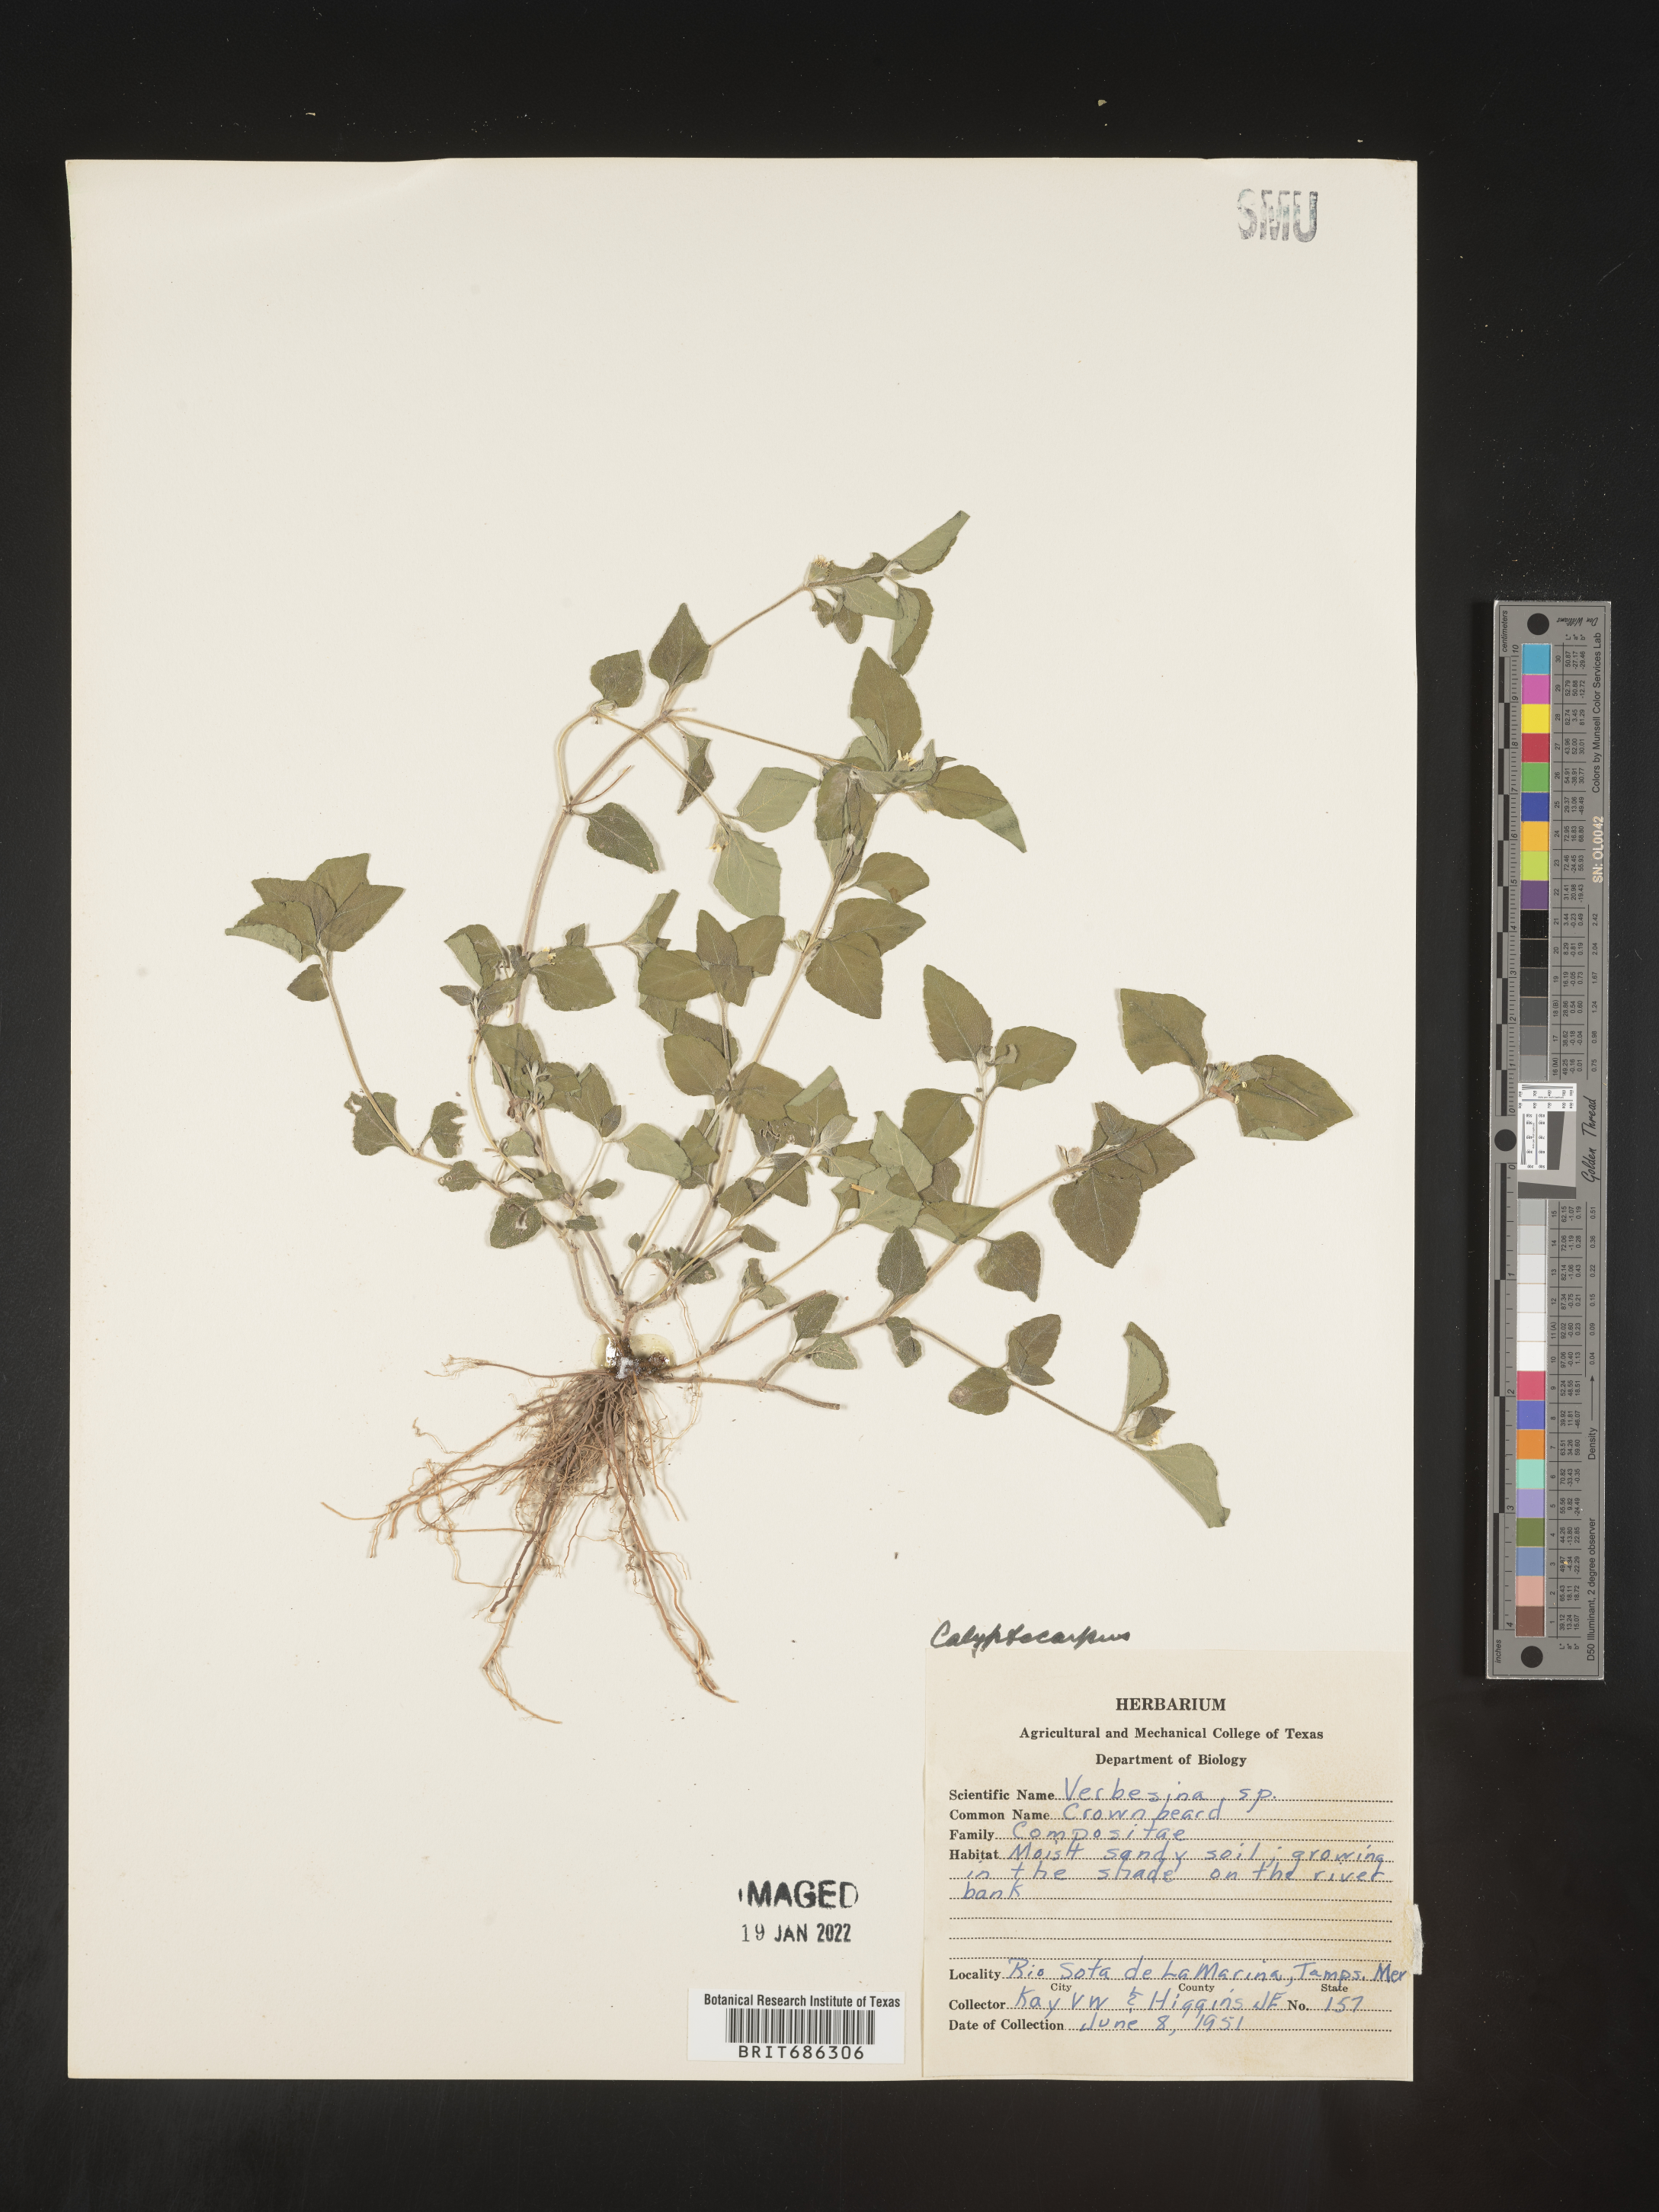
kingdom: Plantae
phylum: Tracheophyta
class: Magnoliopsida
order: Asterales
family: Asteraceae
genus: Calyptocarpus
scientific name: Calyptocarpus
